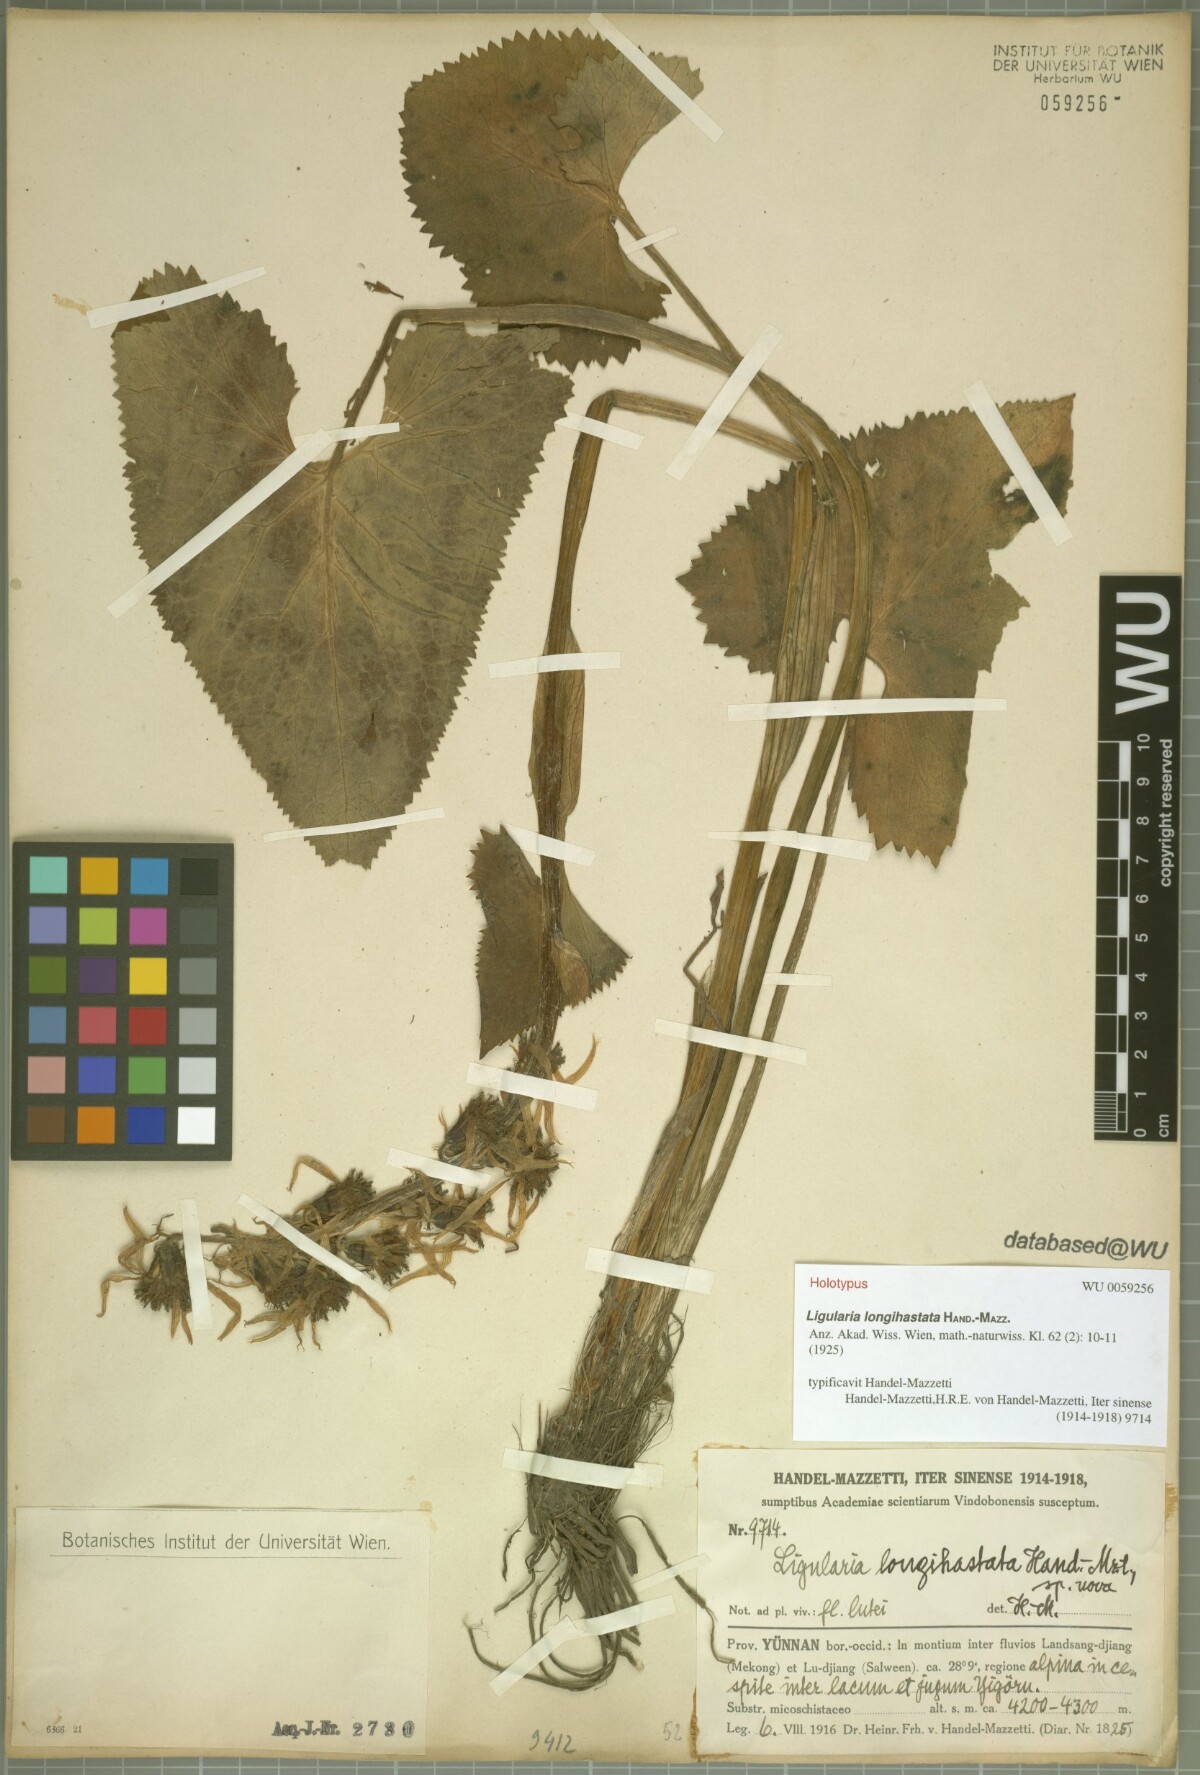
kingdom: Plantae
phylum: Tracheophyta
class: Magnoliopsida
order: Asterales
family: Asteraceae
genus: Ligularia
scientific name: Ligularia longihastata
